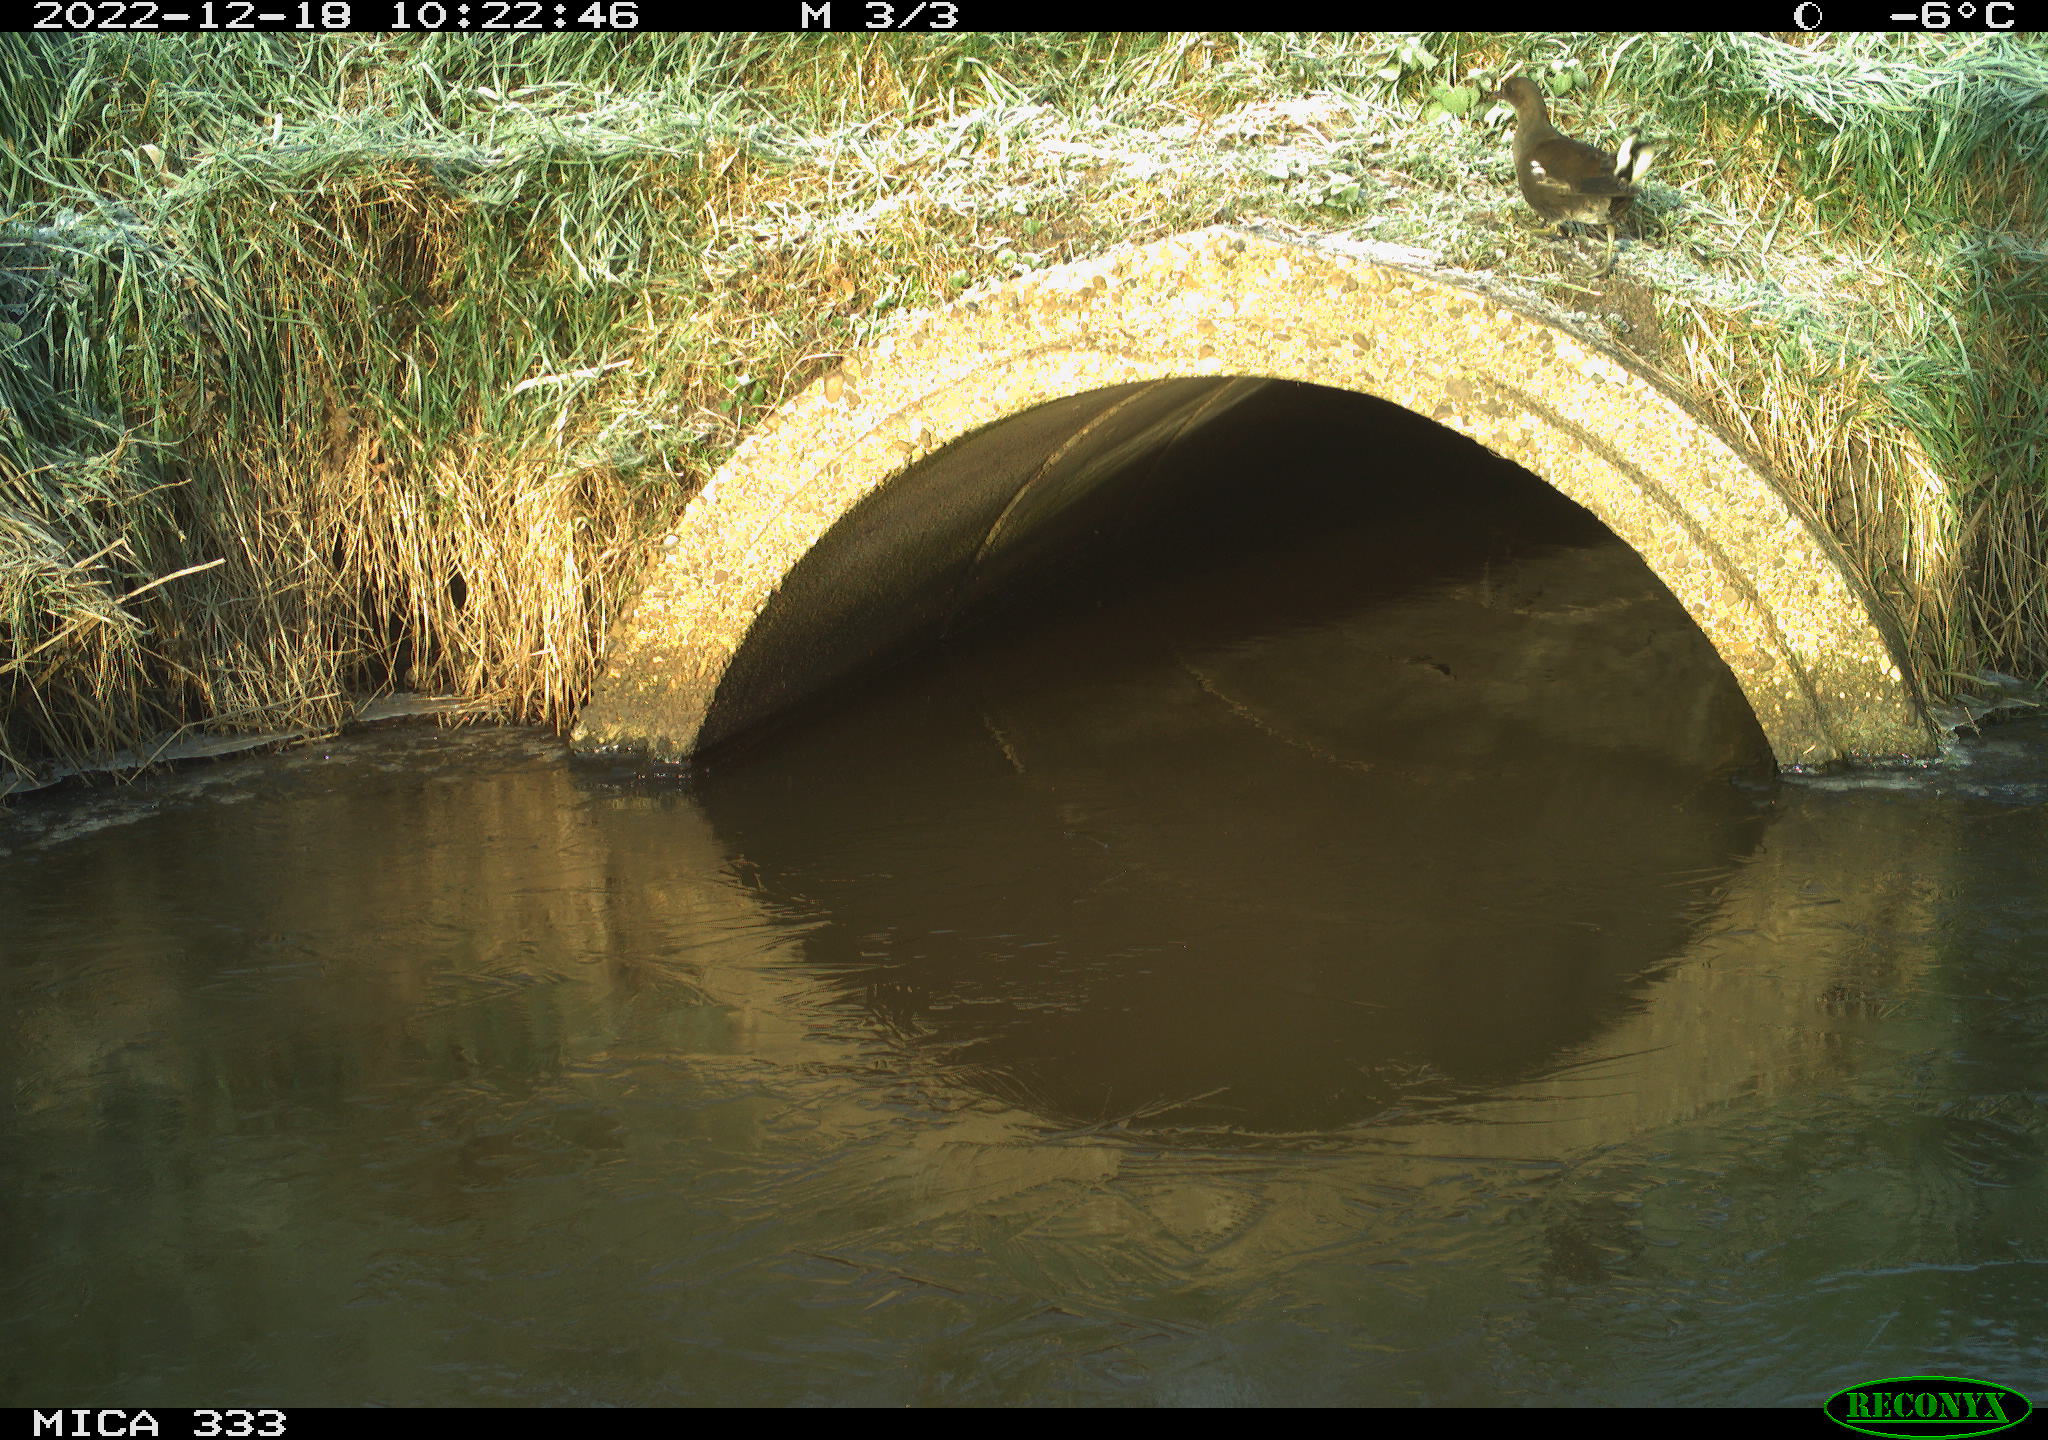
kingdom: Animalia
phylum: Chordata
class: Aves
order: Gruiformes
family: Rallidae
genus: Gallinula
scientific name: Gallinula chloropus
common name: Common moorhen
